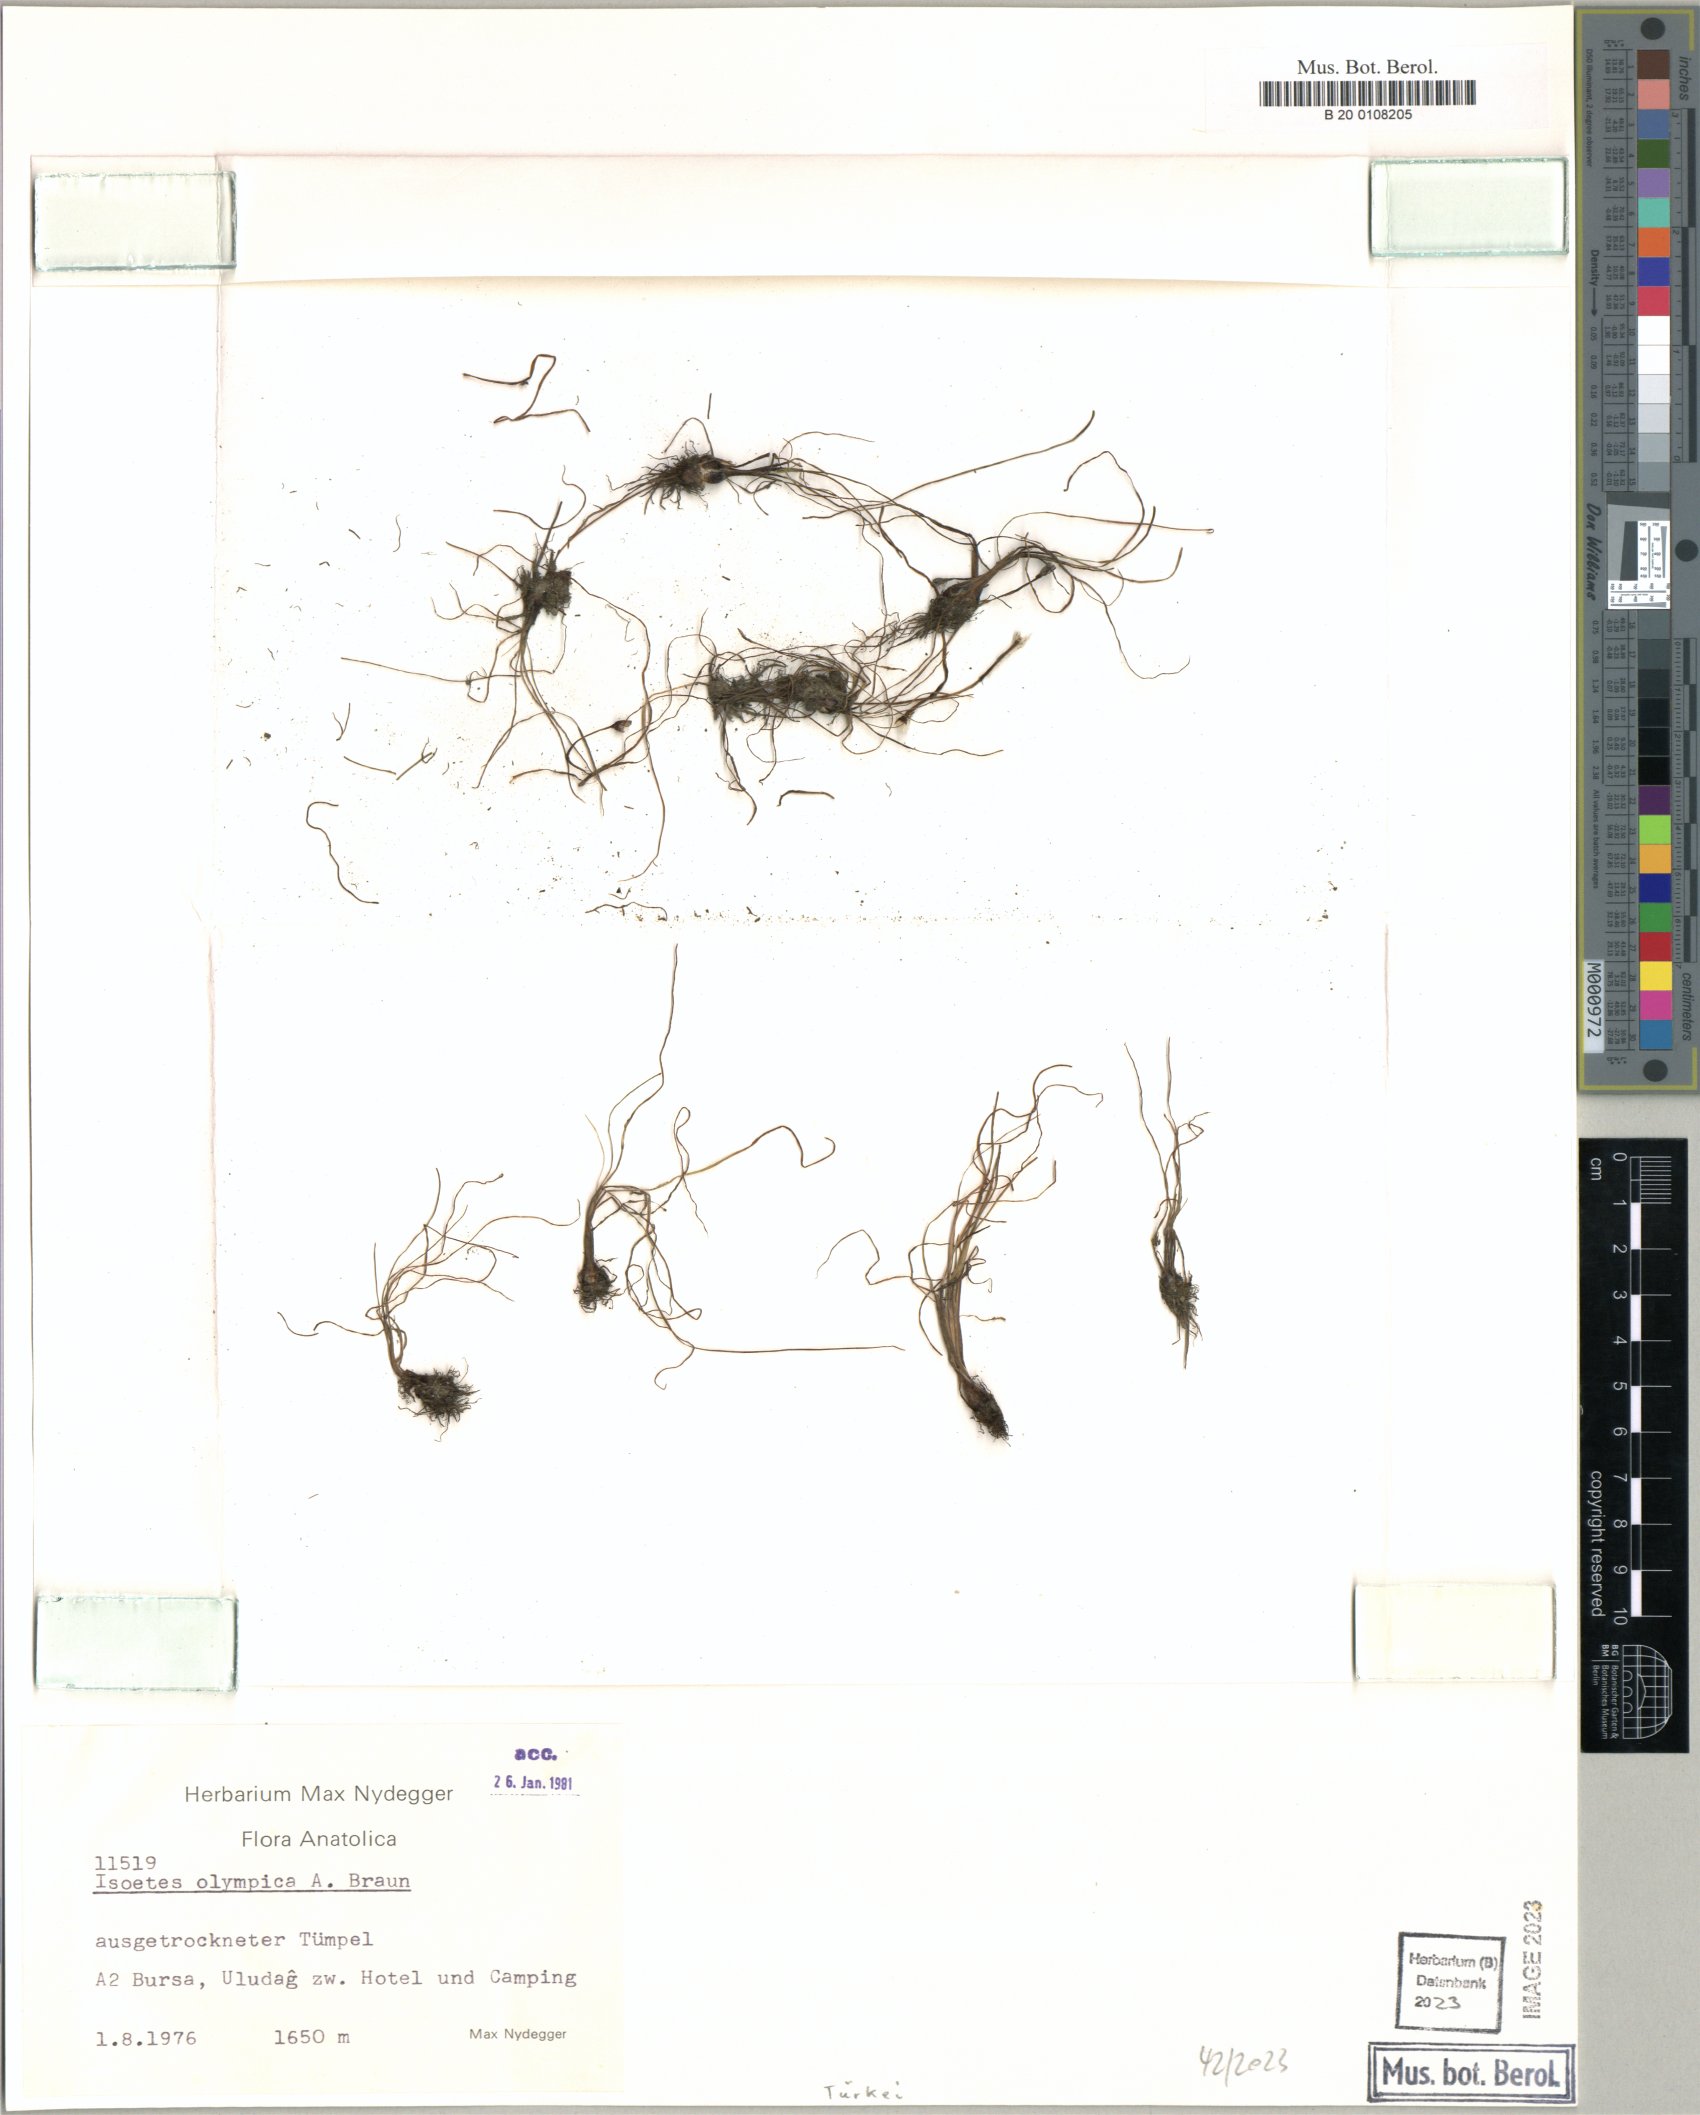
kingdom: Plantae
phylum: Tracheophyta
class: Lycopodiopsida
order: Isoetales
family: Isoetaceae
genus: Isoetes
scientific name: Isoetes olympica
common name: Olympic quillwort
